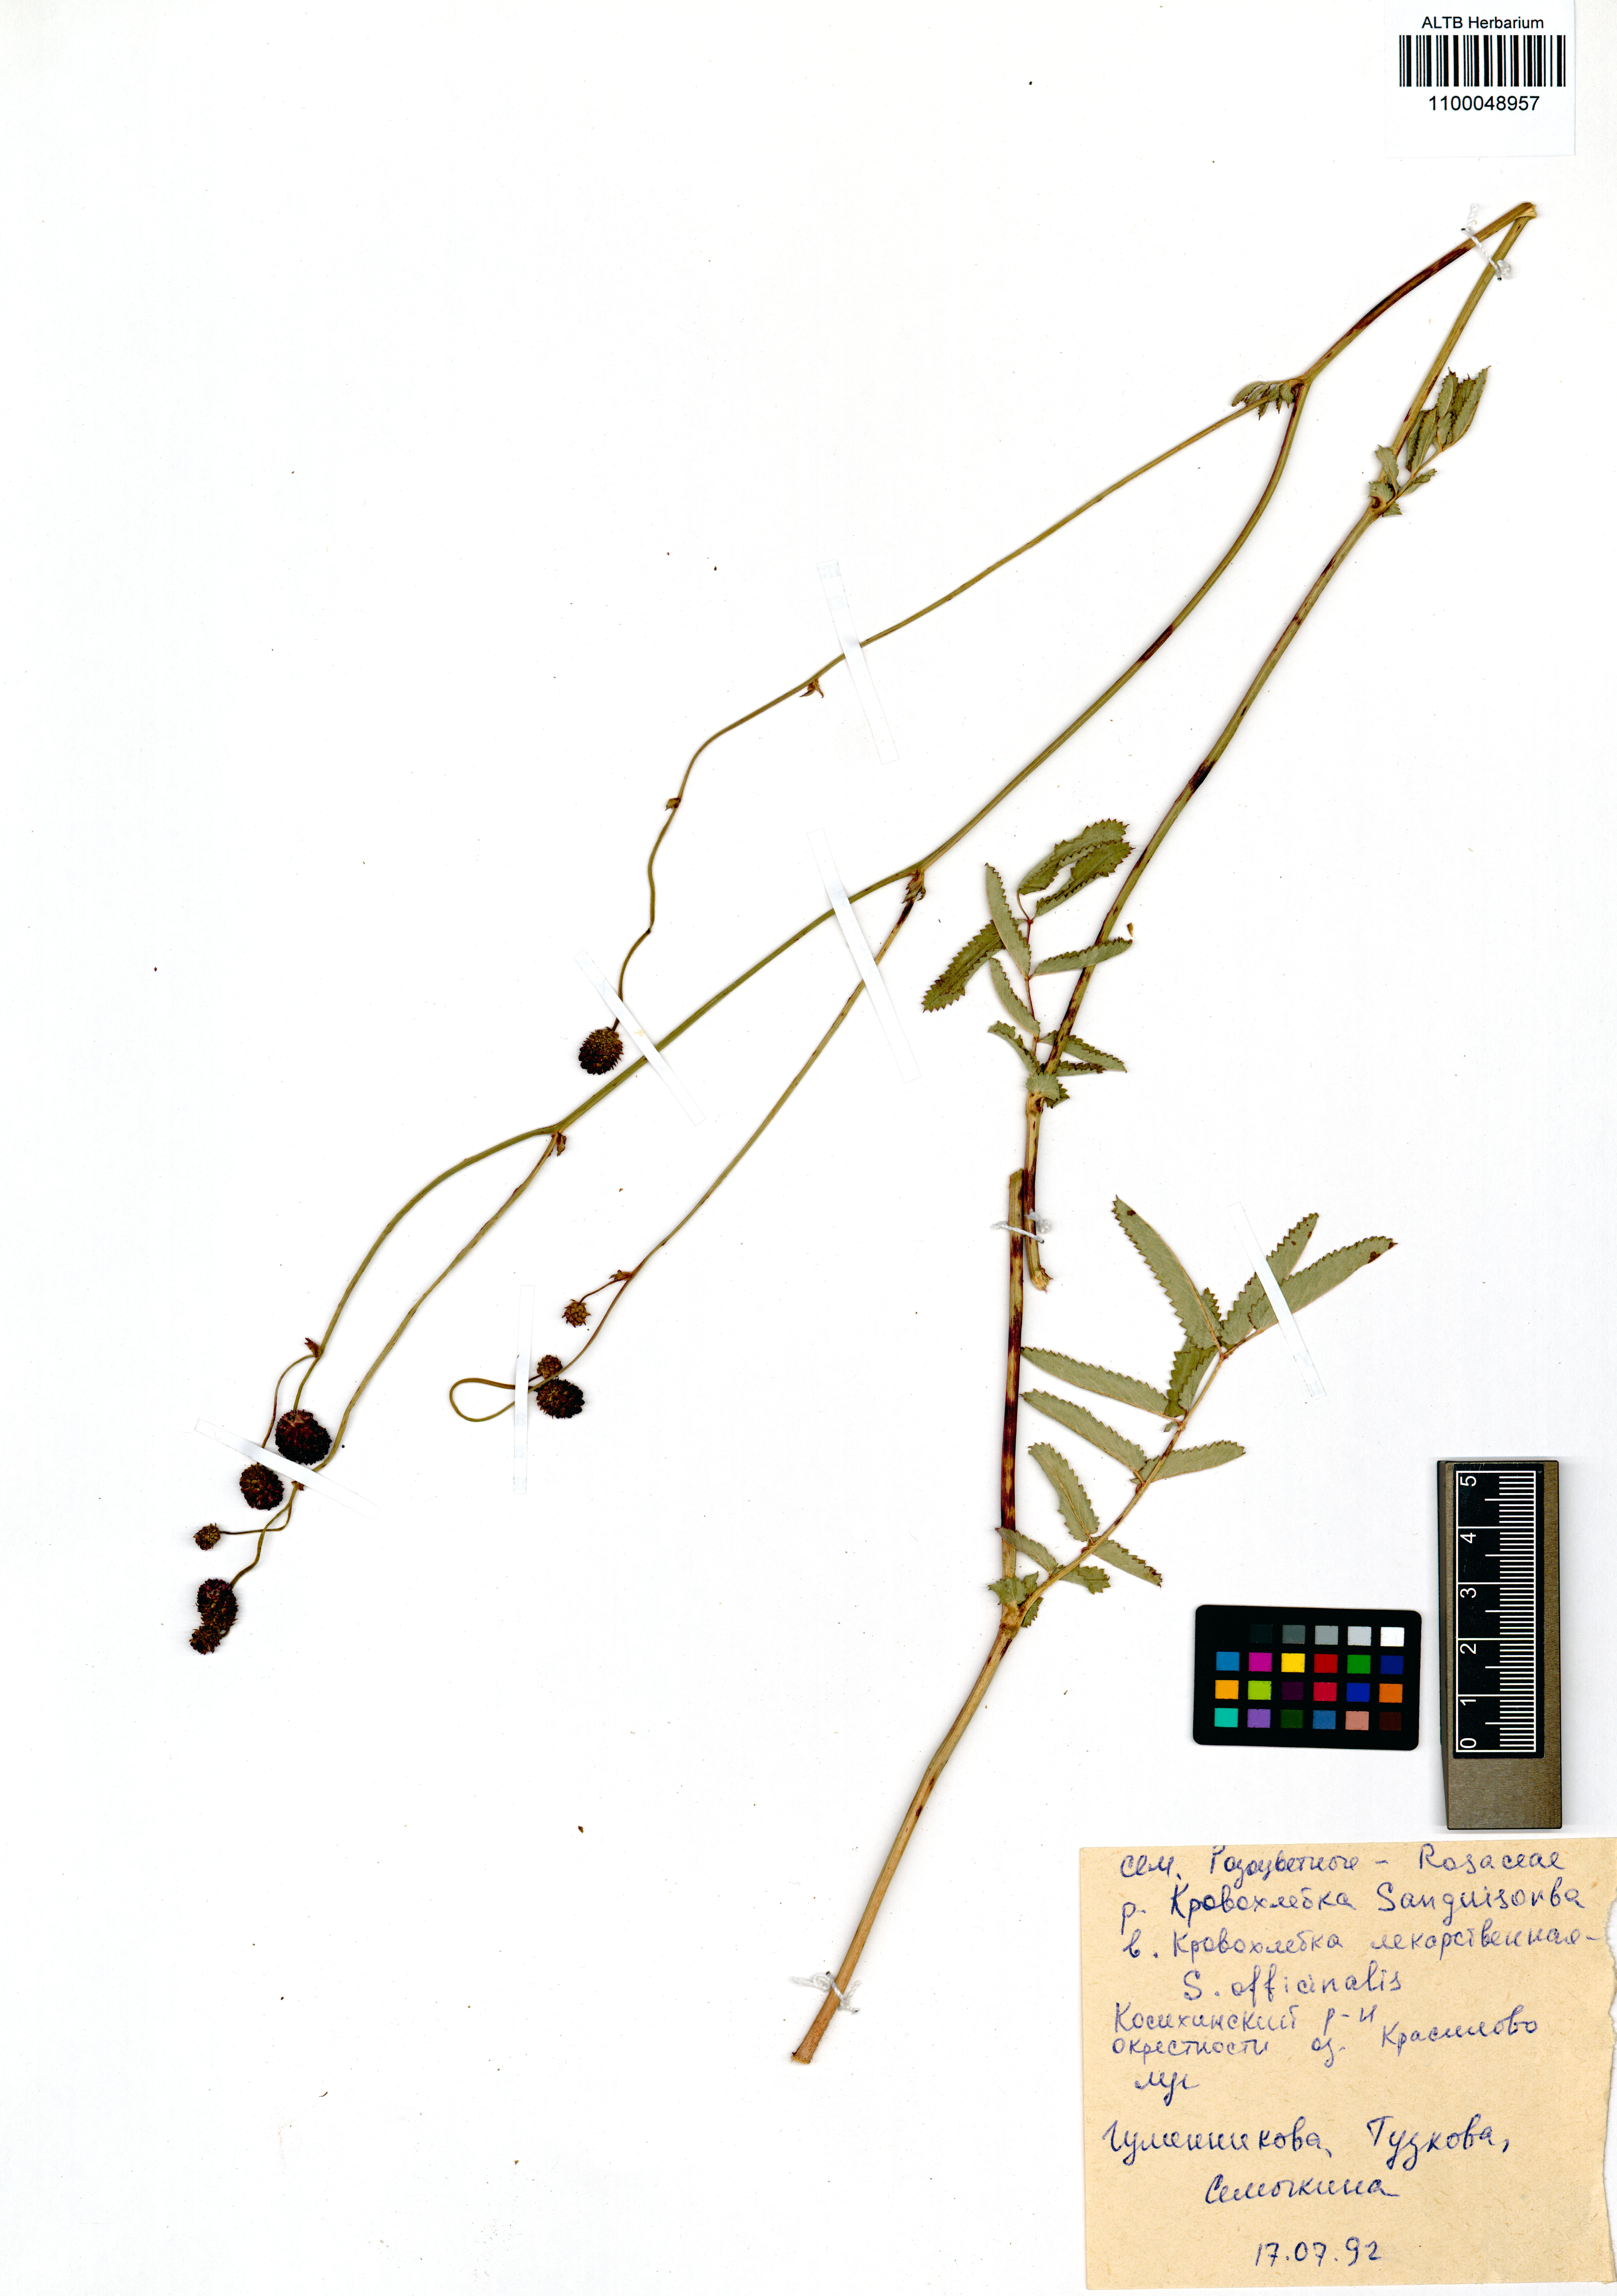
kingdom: Plantae
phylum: Tracheophyta
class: Magnoliopsida
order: Rosales
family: Rosaceae
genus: Sanguisorba
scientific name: Sanguisorba officinalis
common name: Great burnet
